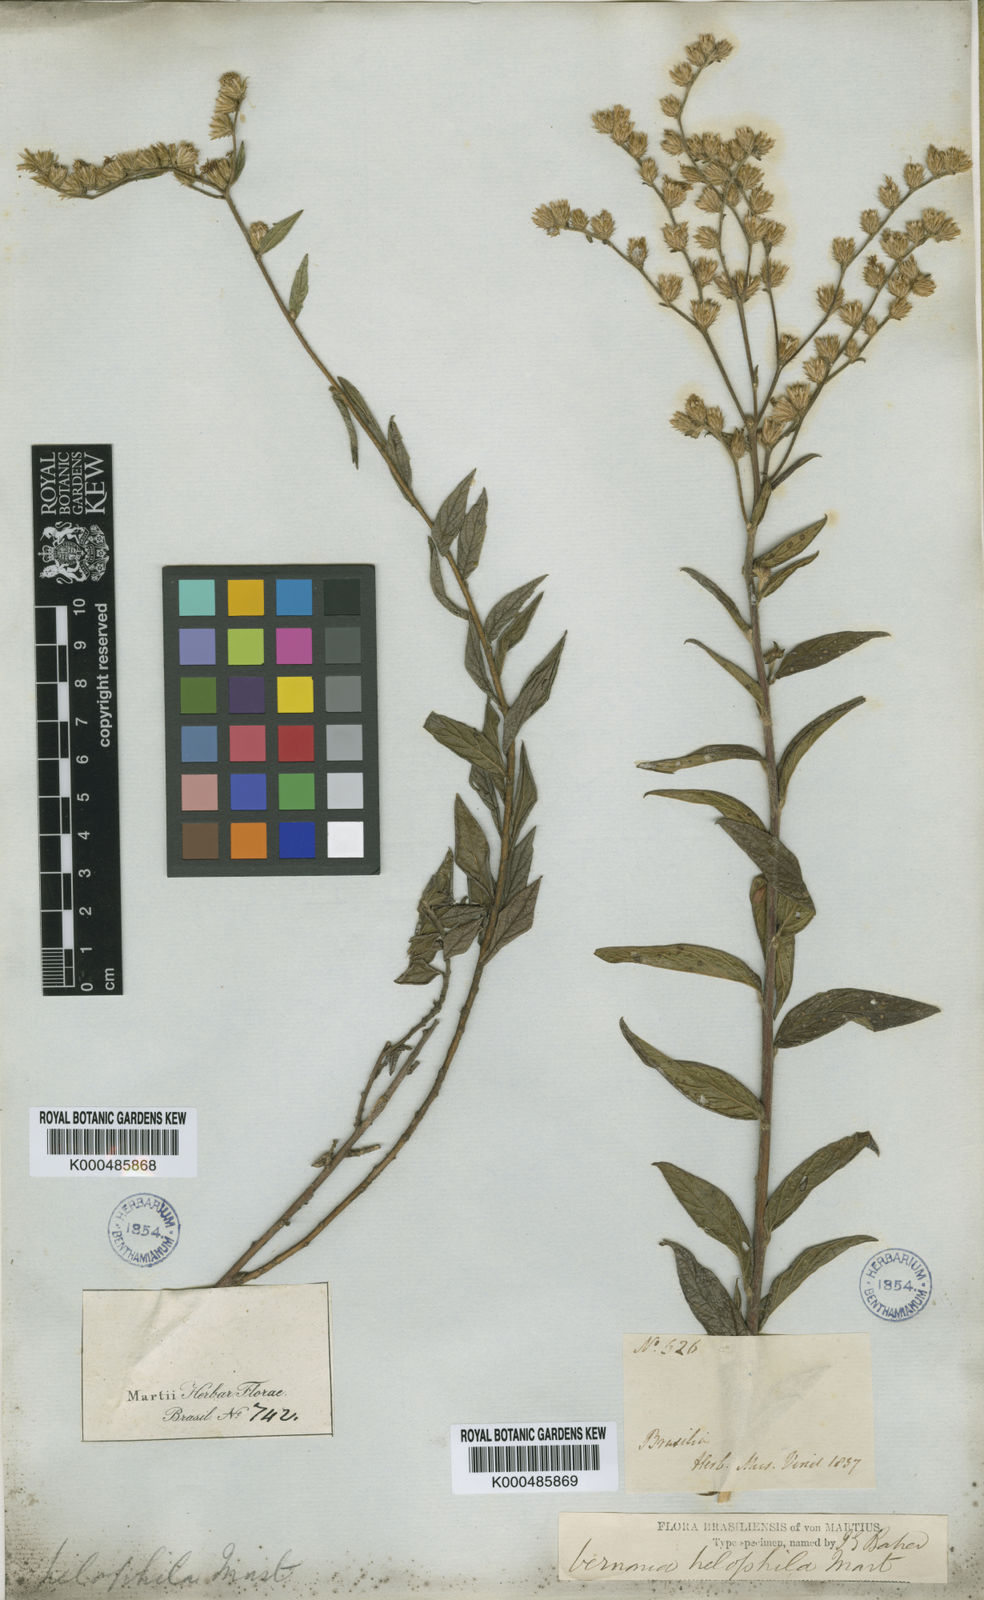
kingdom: Plantae
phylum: Tracheophyta
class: Magnoliopsida
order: Asterales
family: Asteraceae
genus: Lepidaploa
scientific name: Lepidaploa helophila
